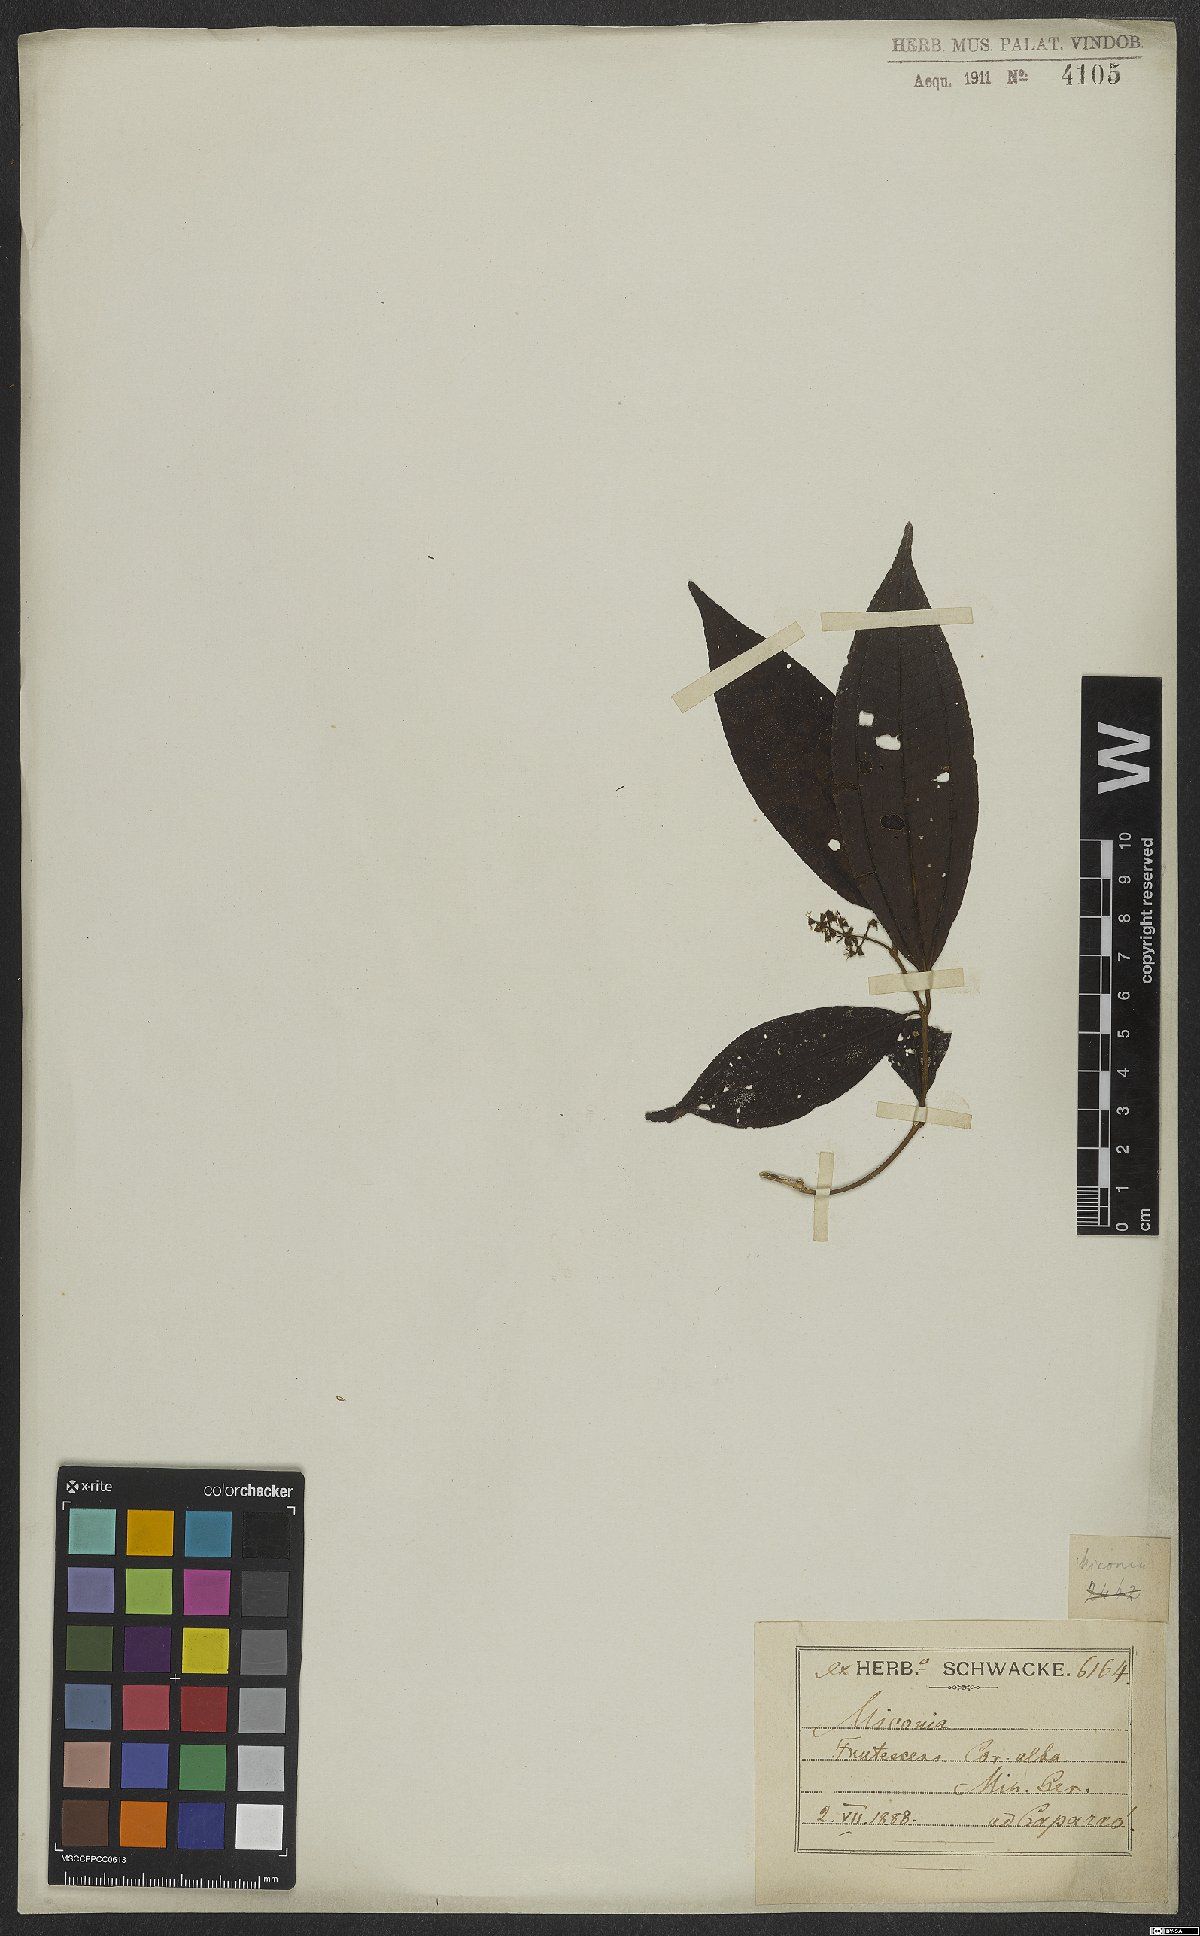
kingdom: Plantae
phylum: Tracheophyta
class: Magnoliopsida
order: Myrtales
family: Melastomataceae
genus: Miconia
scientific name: Miconia
